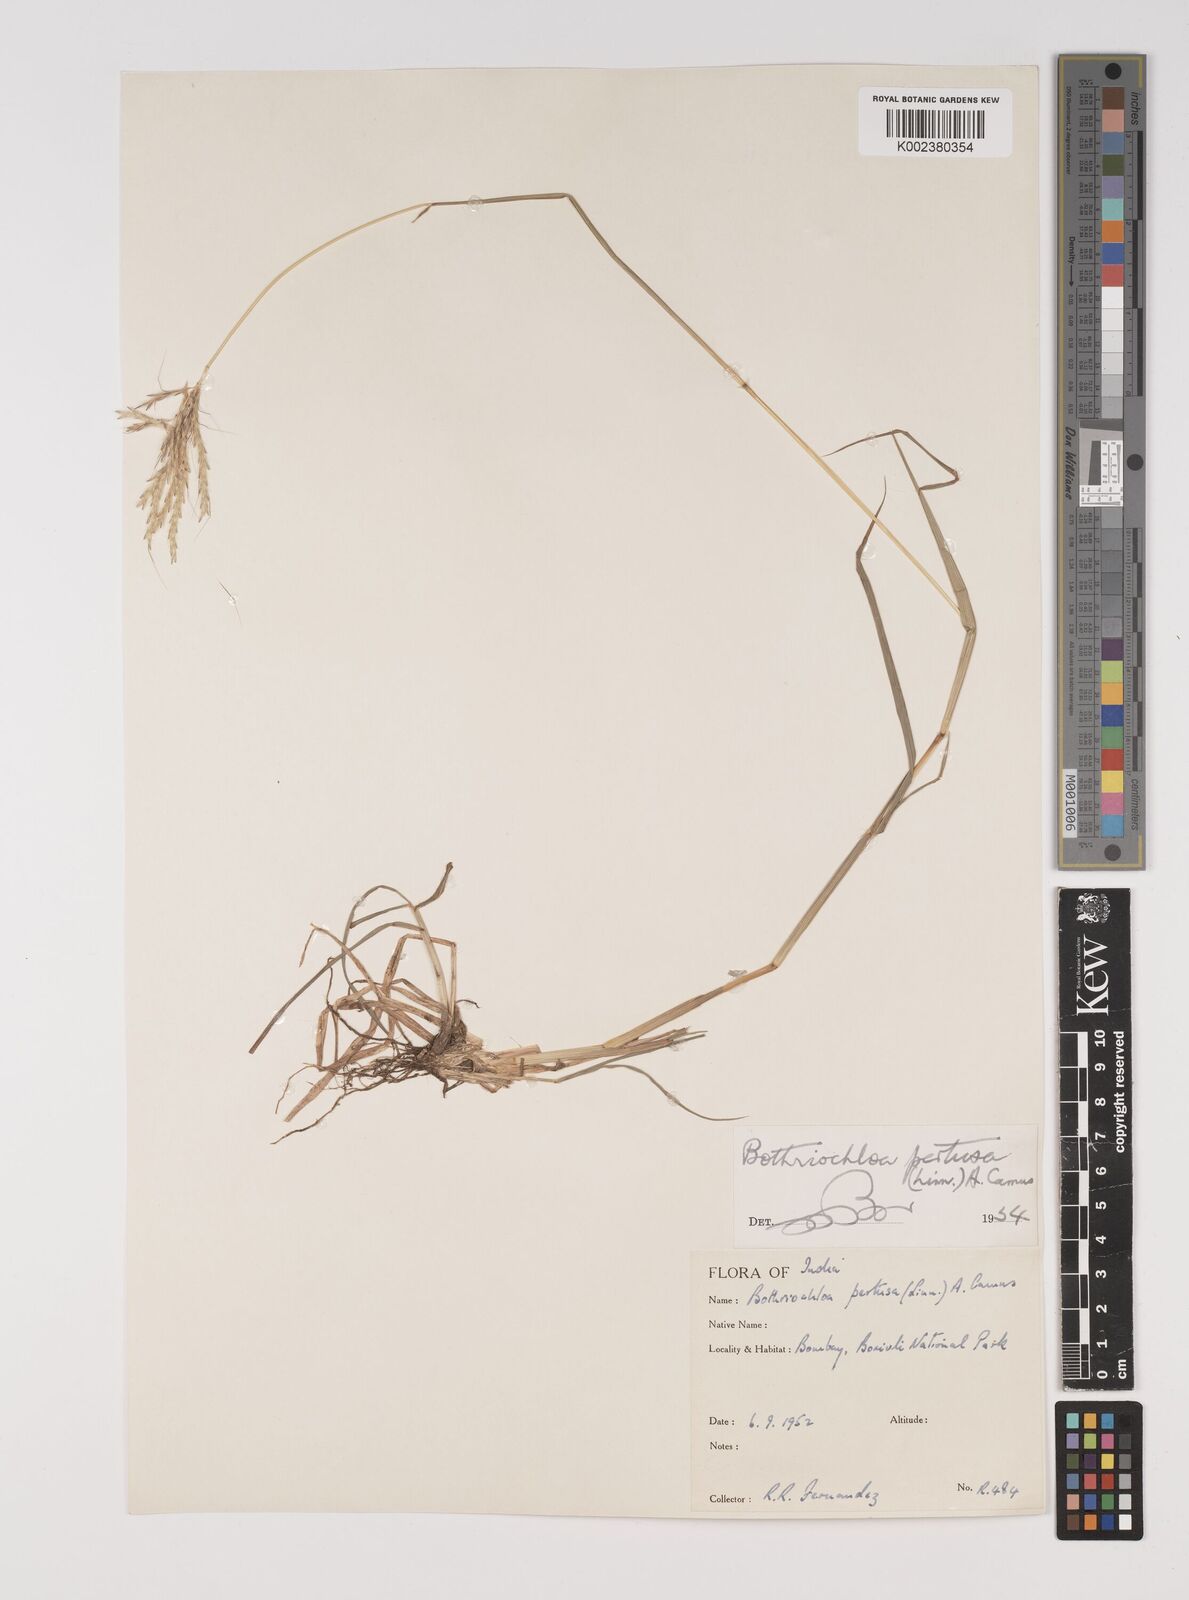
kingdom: Plantae
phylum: Tracheophyta
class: Liliopsida
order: Poales
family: Poaceae
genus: Bothriochloa
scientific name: Bothriochloa pertusa
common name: Pitted beardgrass
